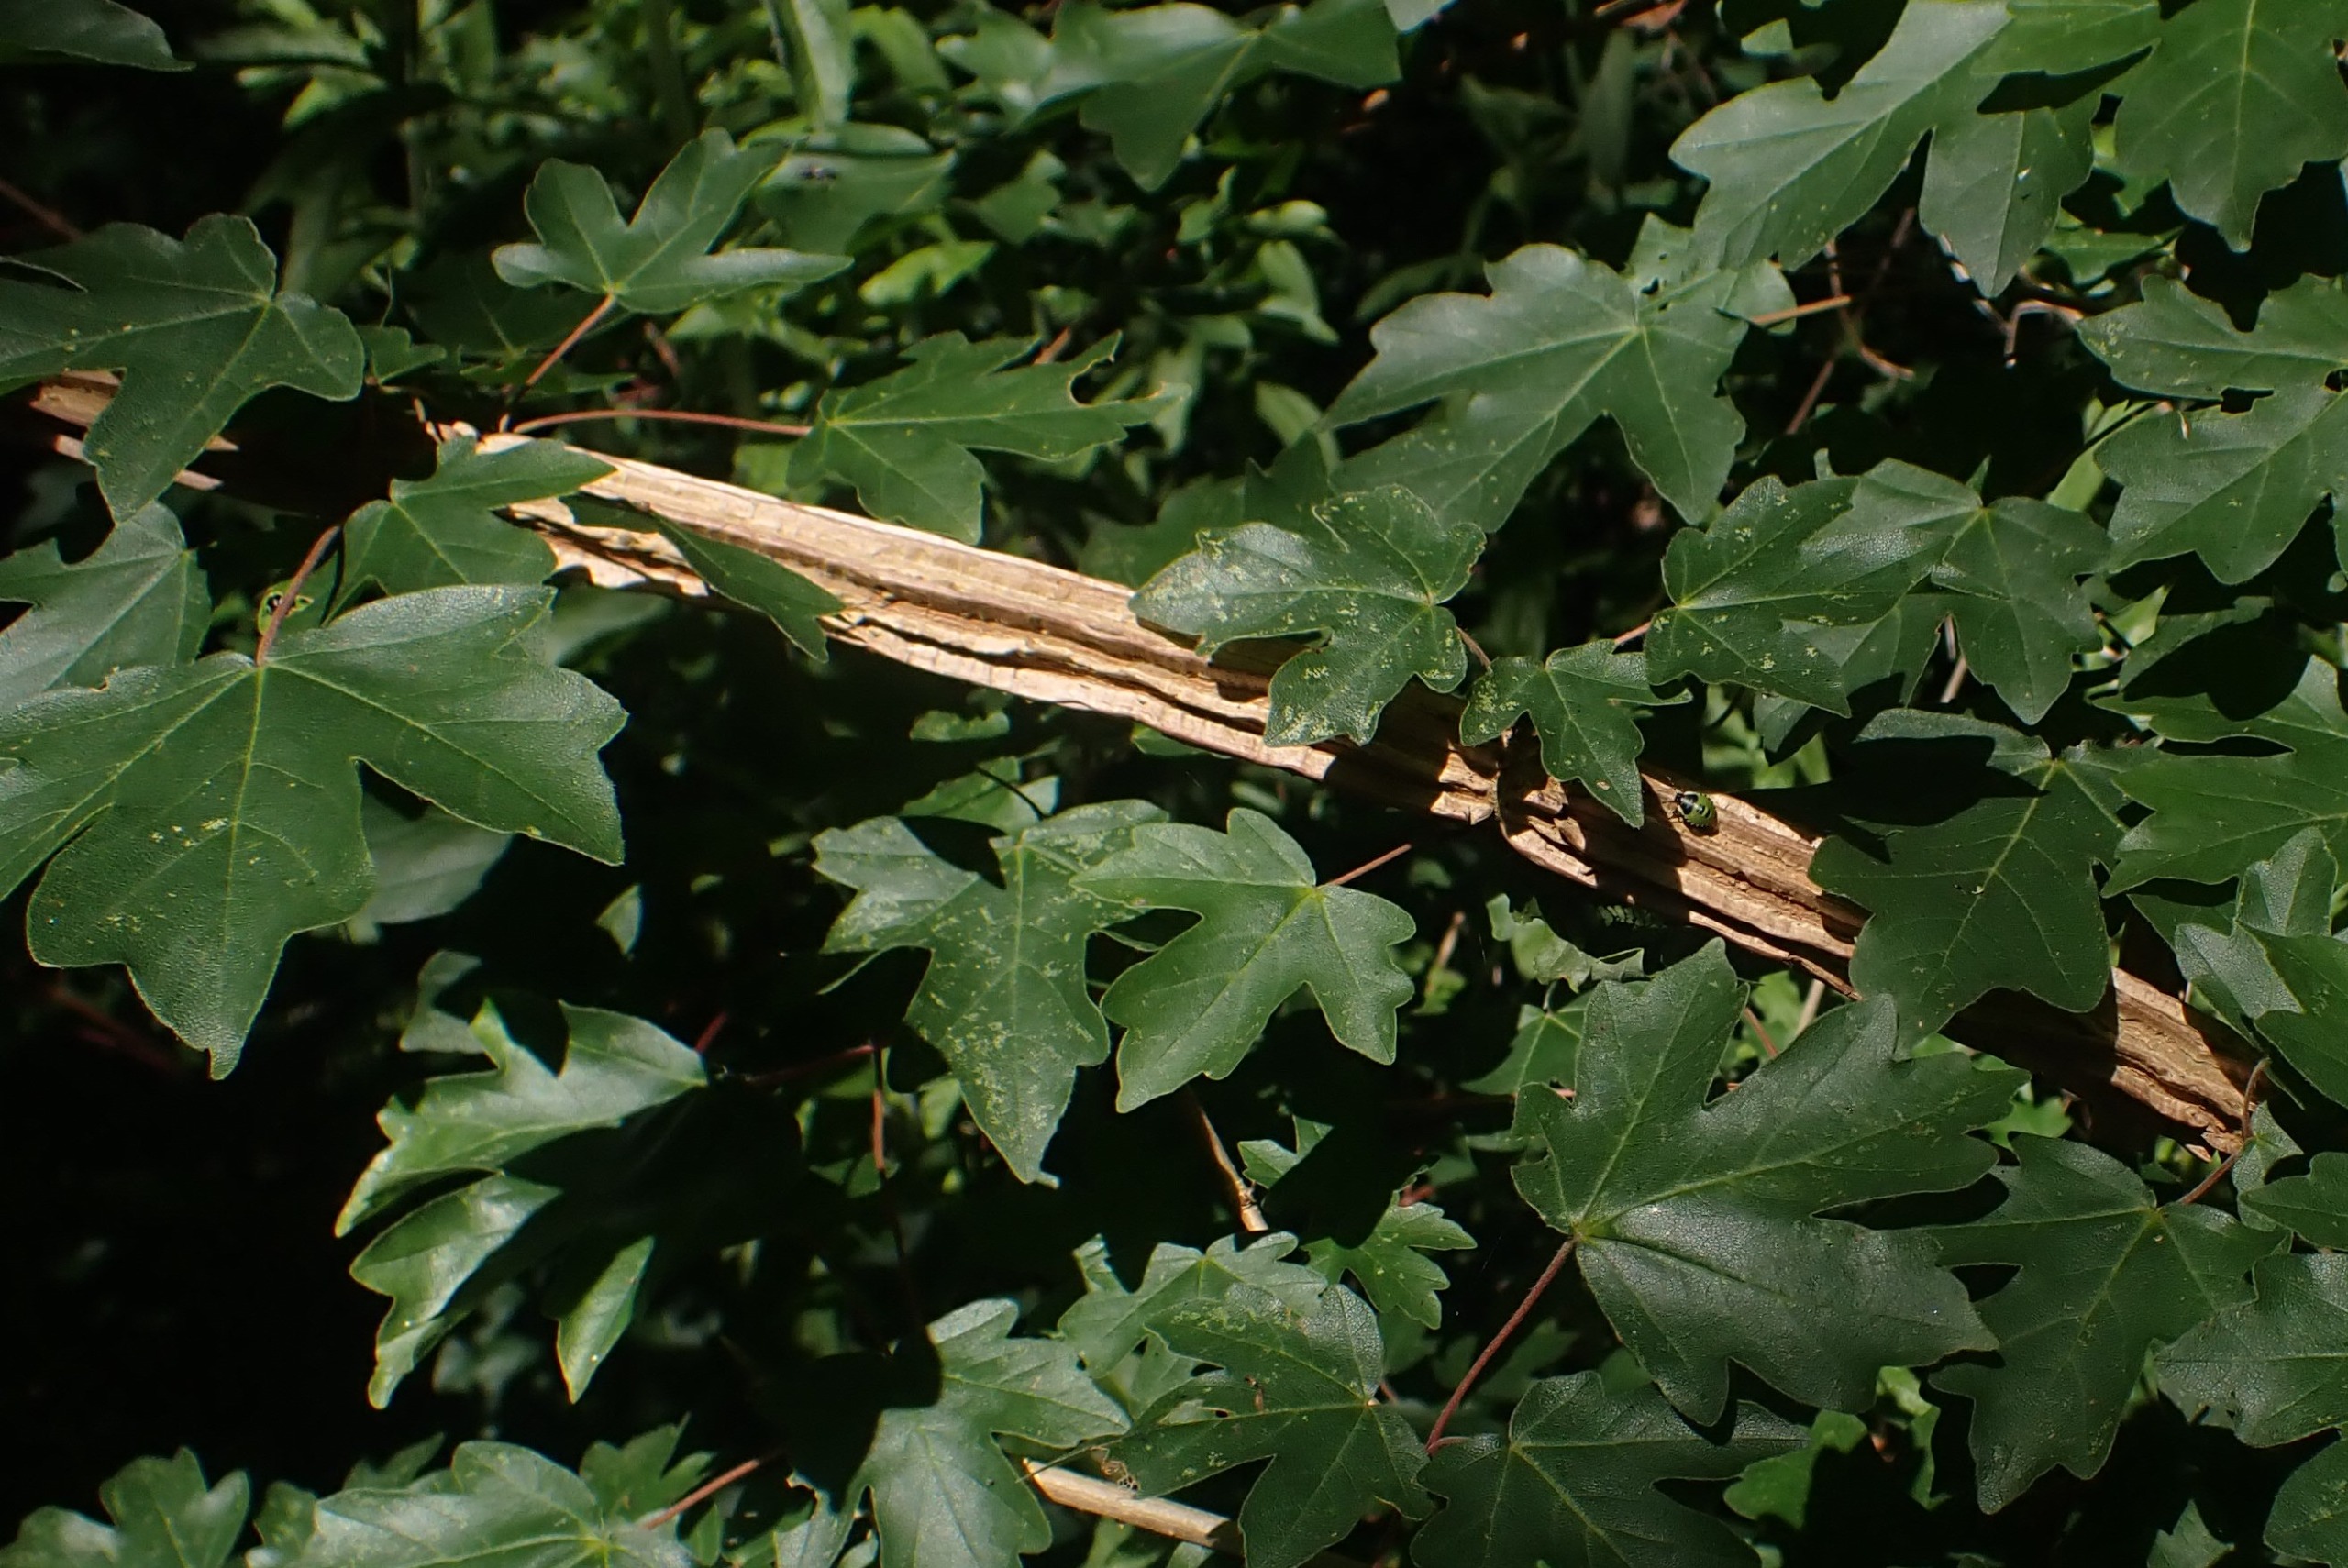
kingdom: Plantae
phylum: Tracheophyta
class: Magnoliopsida
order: Sapindales
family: Sapindaceae
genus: Acer
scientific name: Acer campestre
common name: Navr
